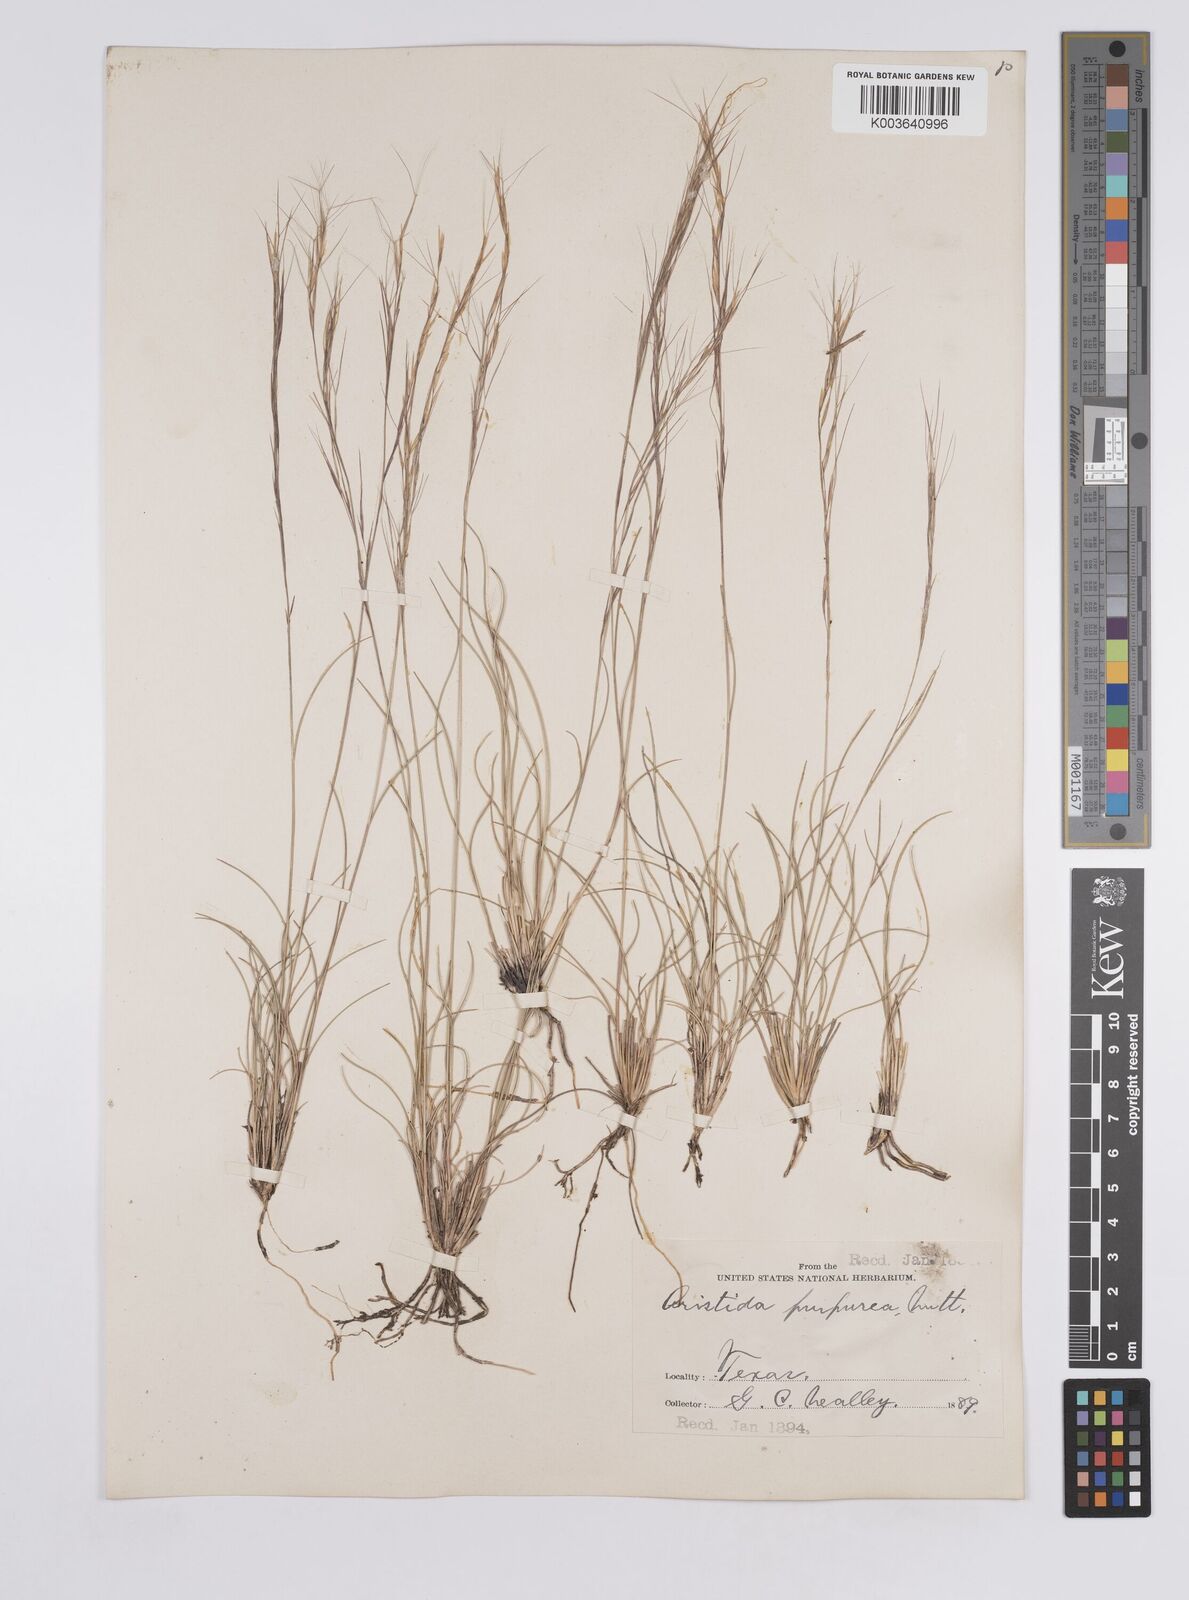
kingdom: Plantae
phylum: Tracheophyta
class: Liliopsida
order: Poales
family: Poaceae
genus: Aristida
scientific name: Aristida purpurea
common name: Purple threeawn
